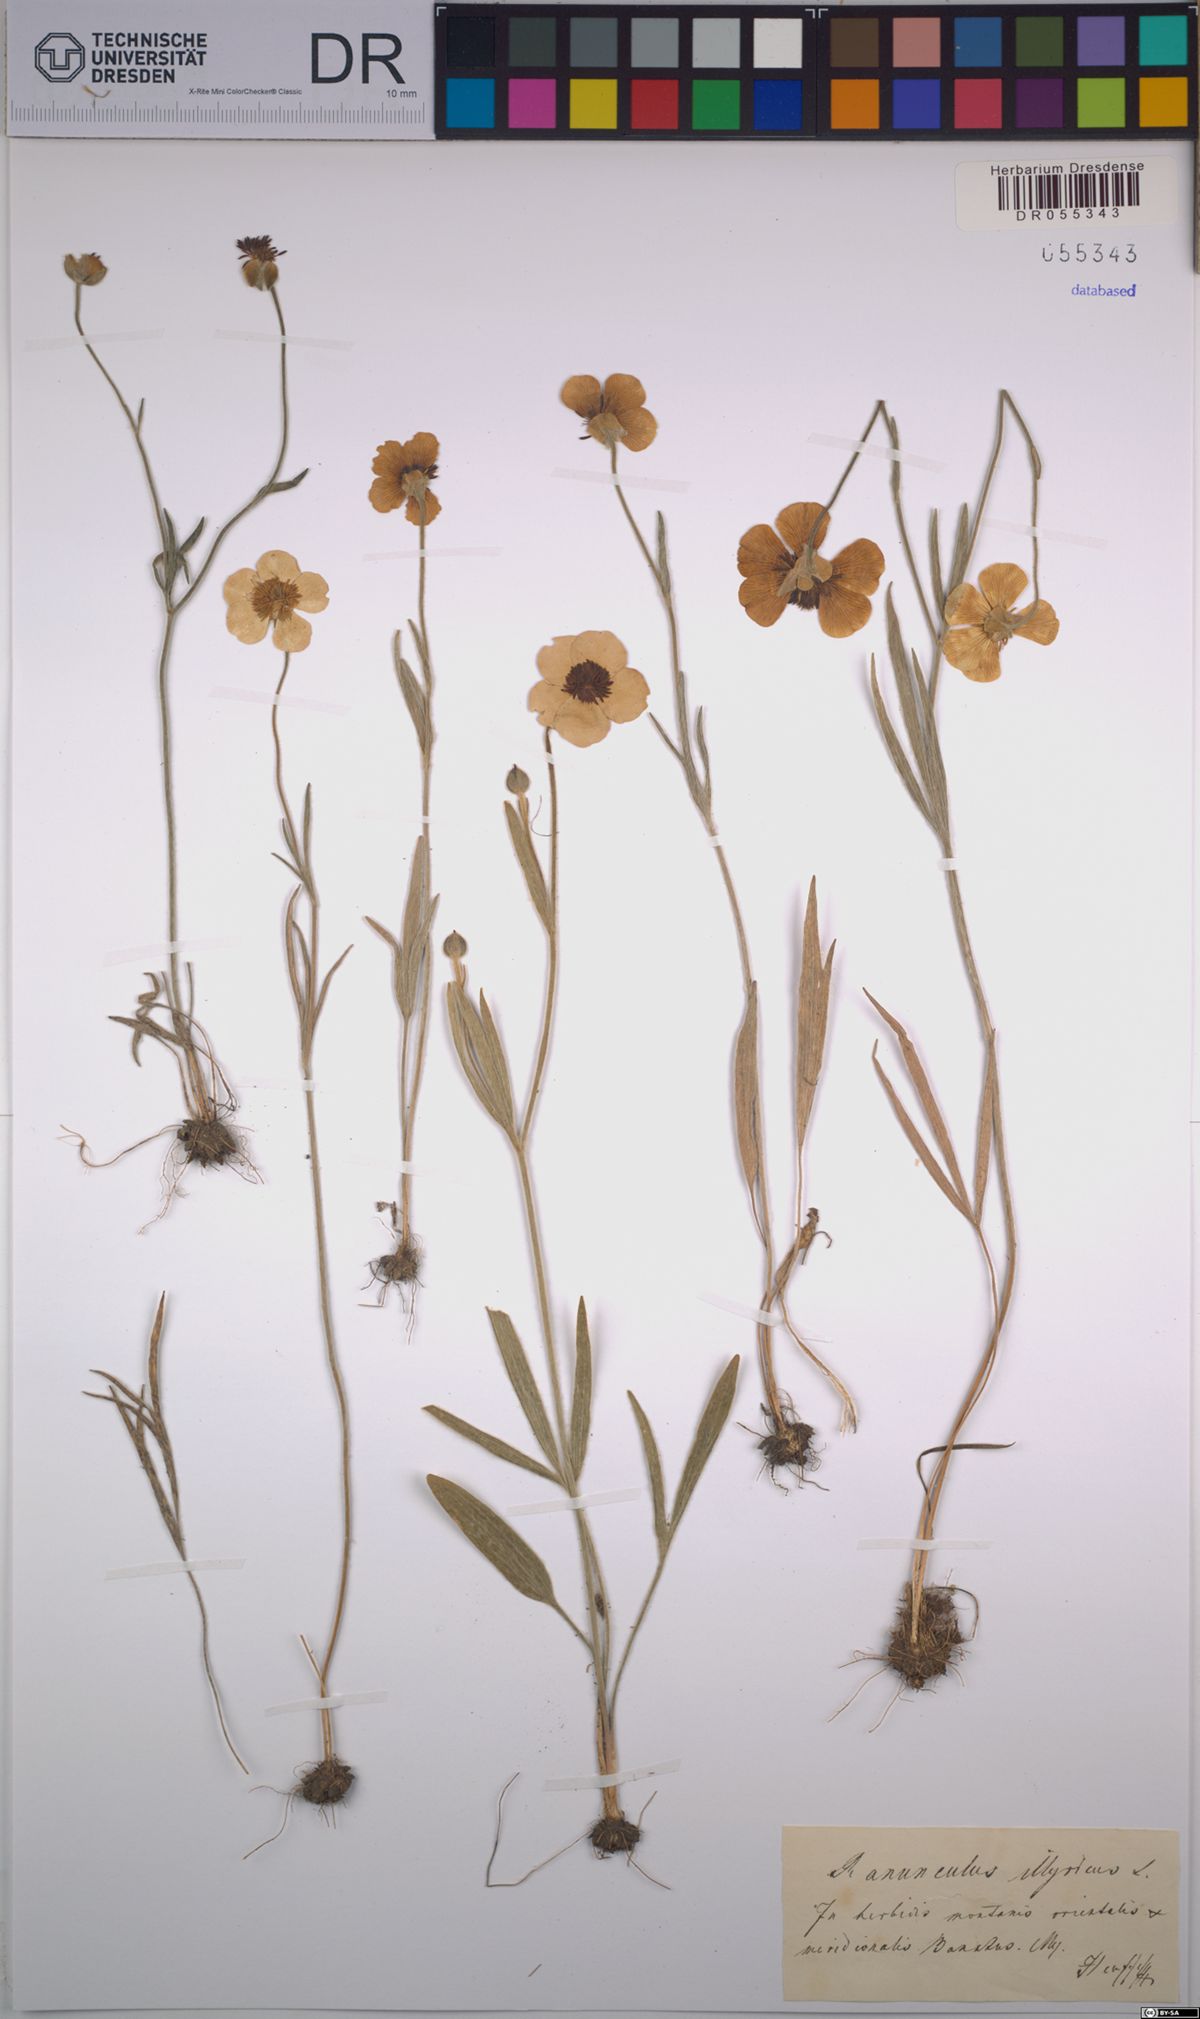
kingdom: Plantae
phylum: Tracheophyta
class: Magnoliopsida
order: Ranunculales
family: Ranunculaceae
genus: Ranunculus
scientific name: Ranunculus illyricus
